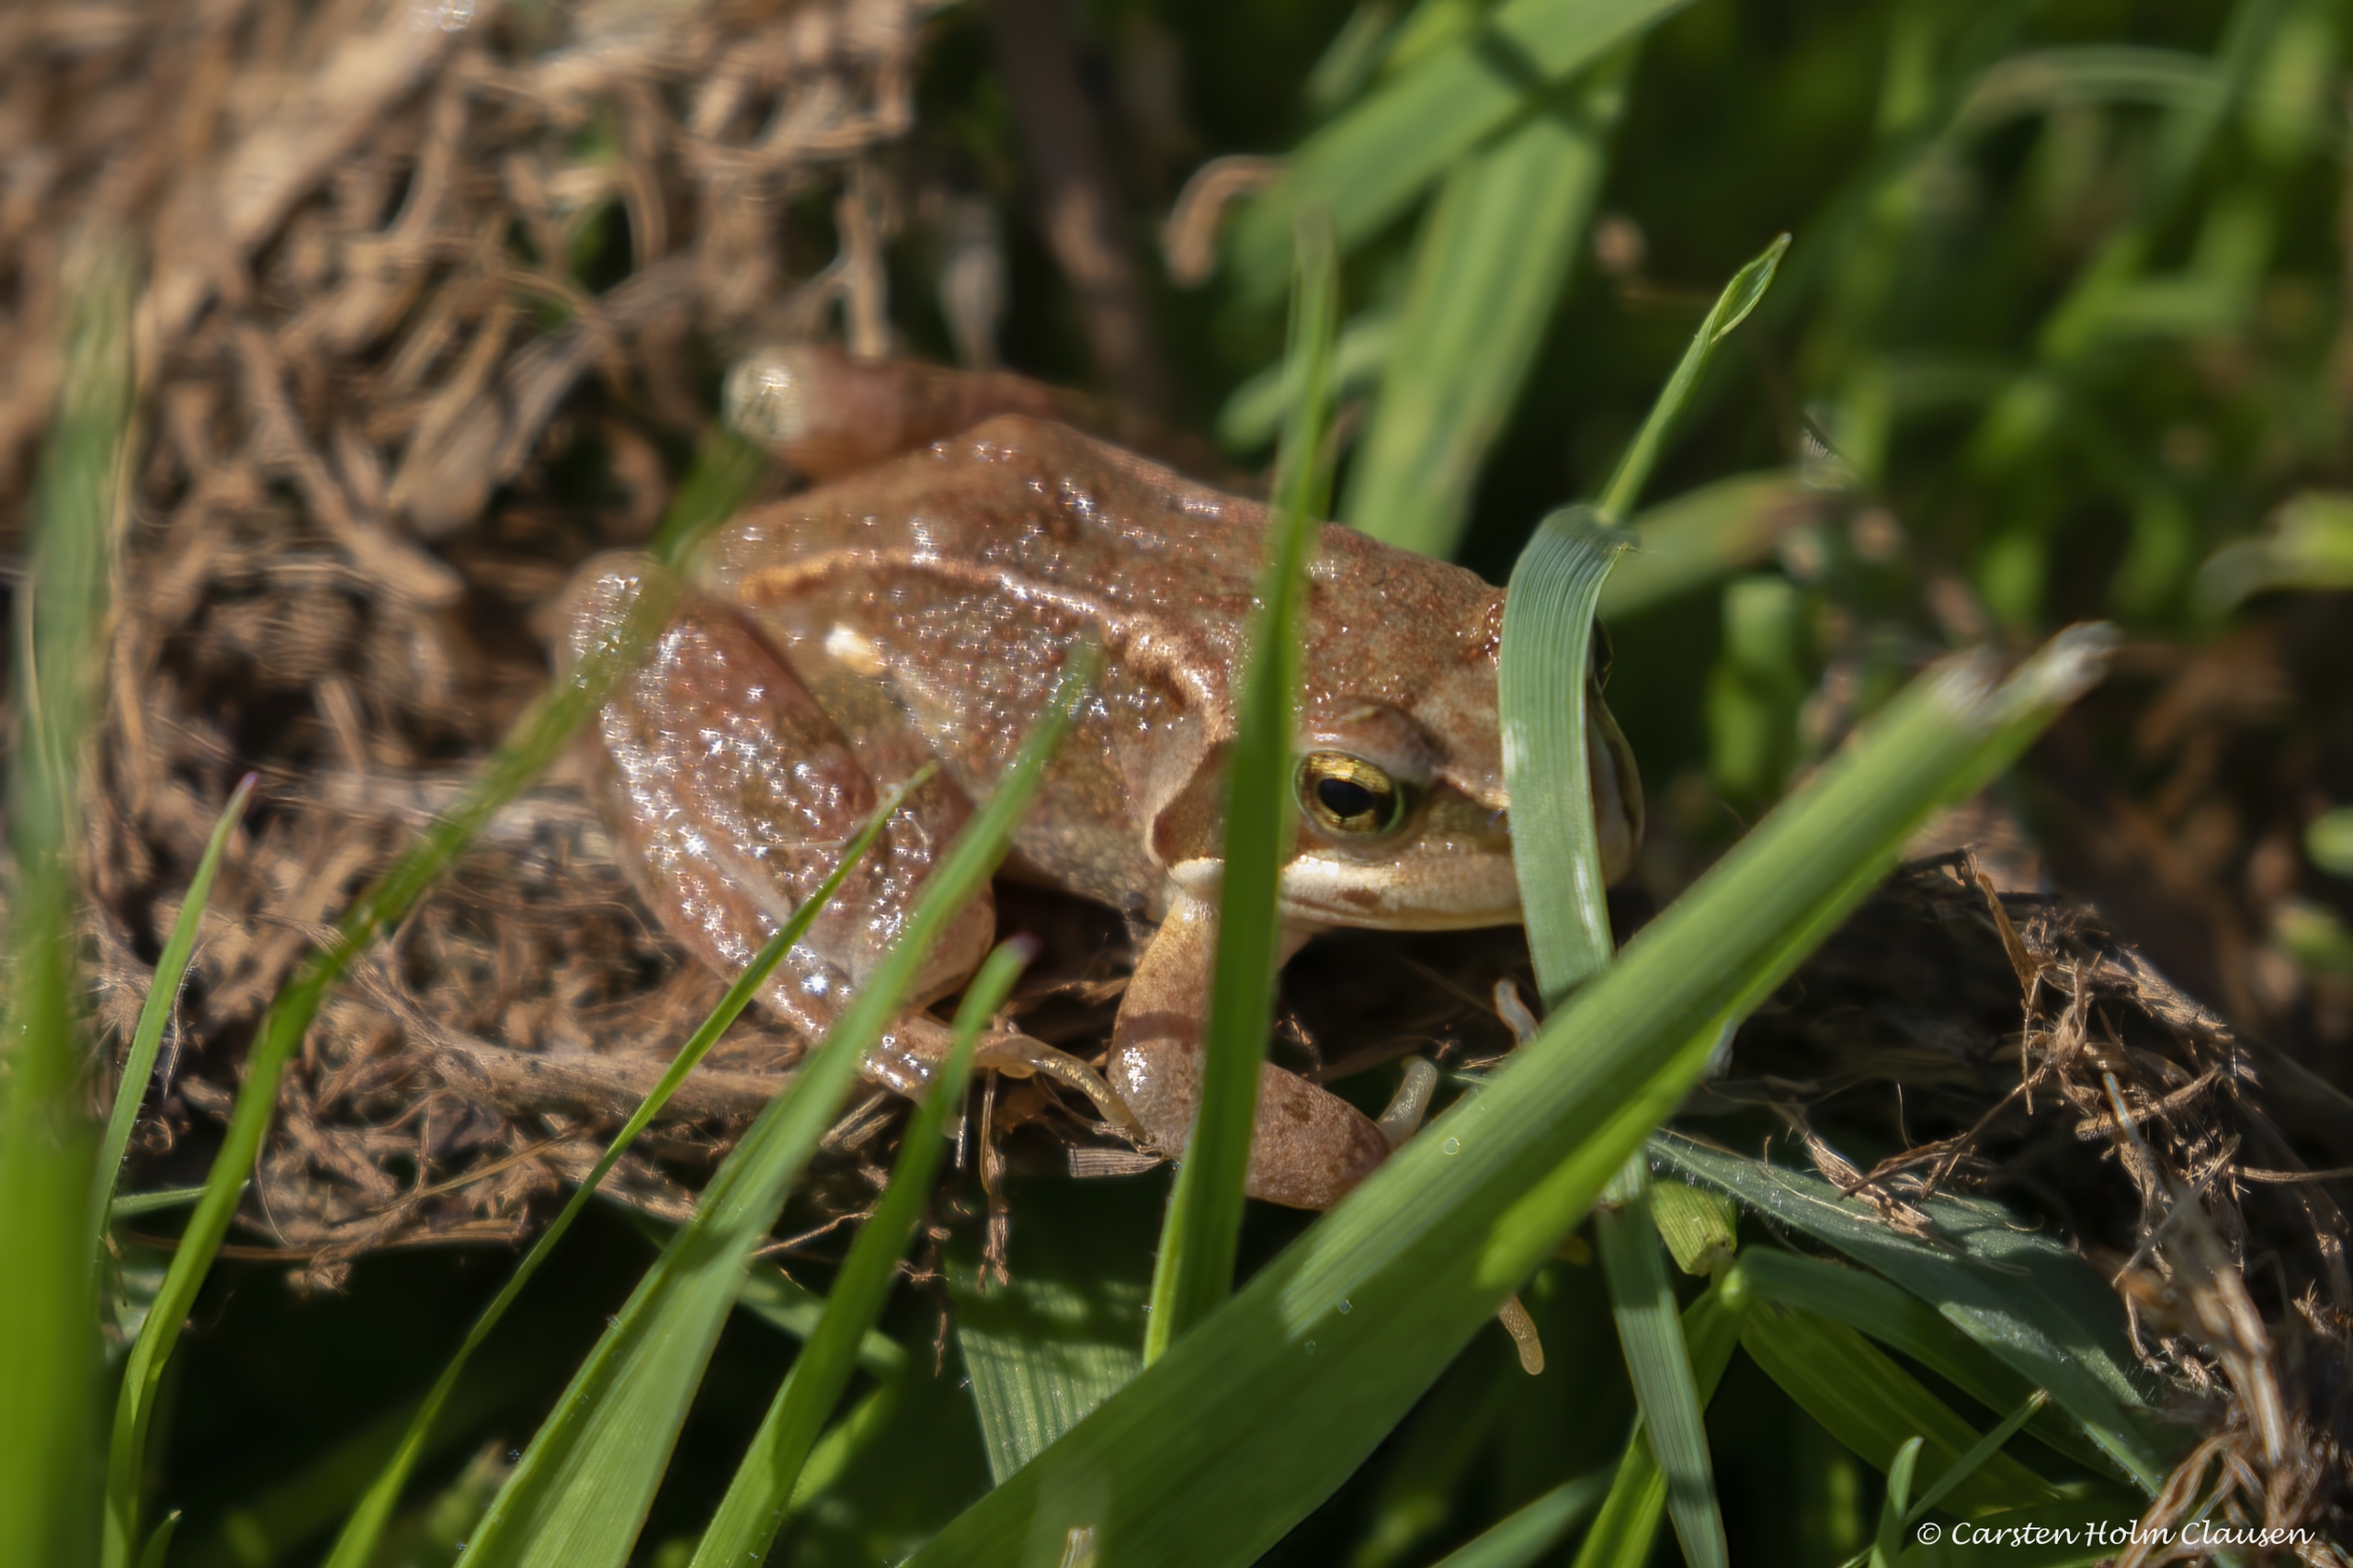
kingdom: Animalia
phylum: Chordata
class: Amphibia
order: Anura
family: Ranidae
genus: Rana
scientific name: Rana temporaria
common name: Butsnudet frø
